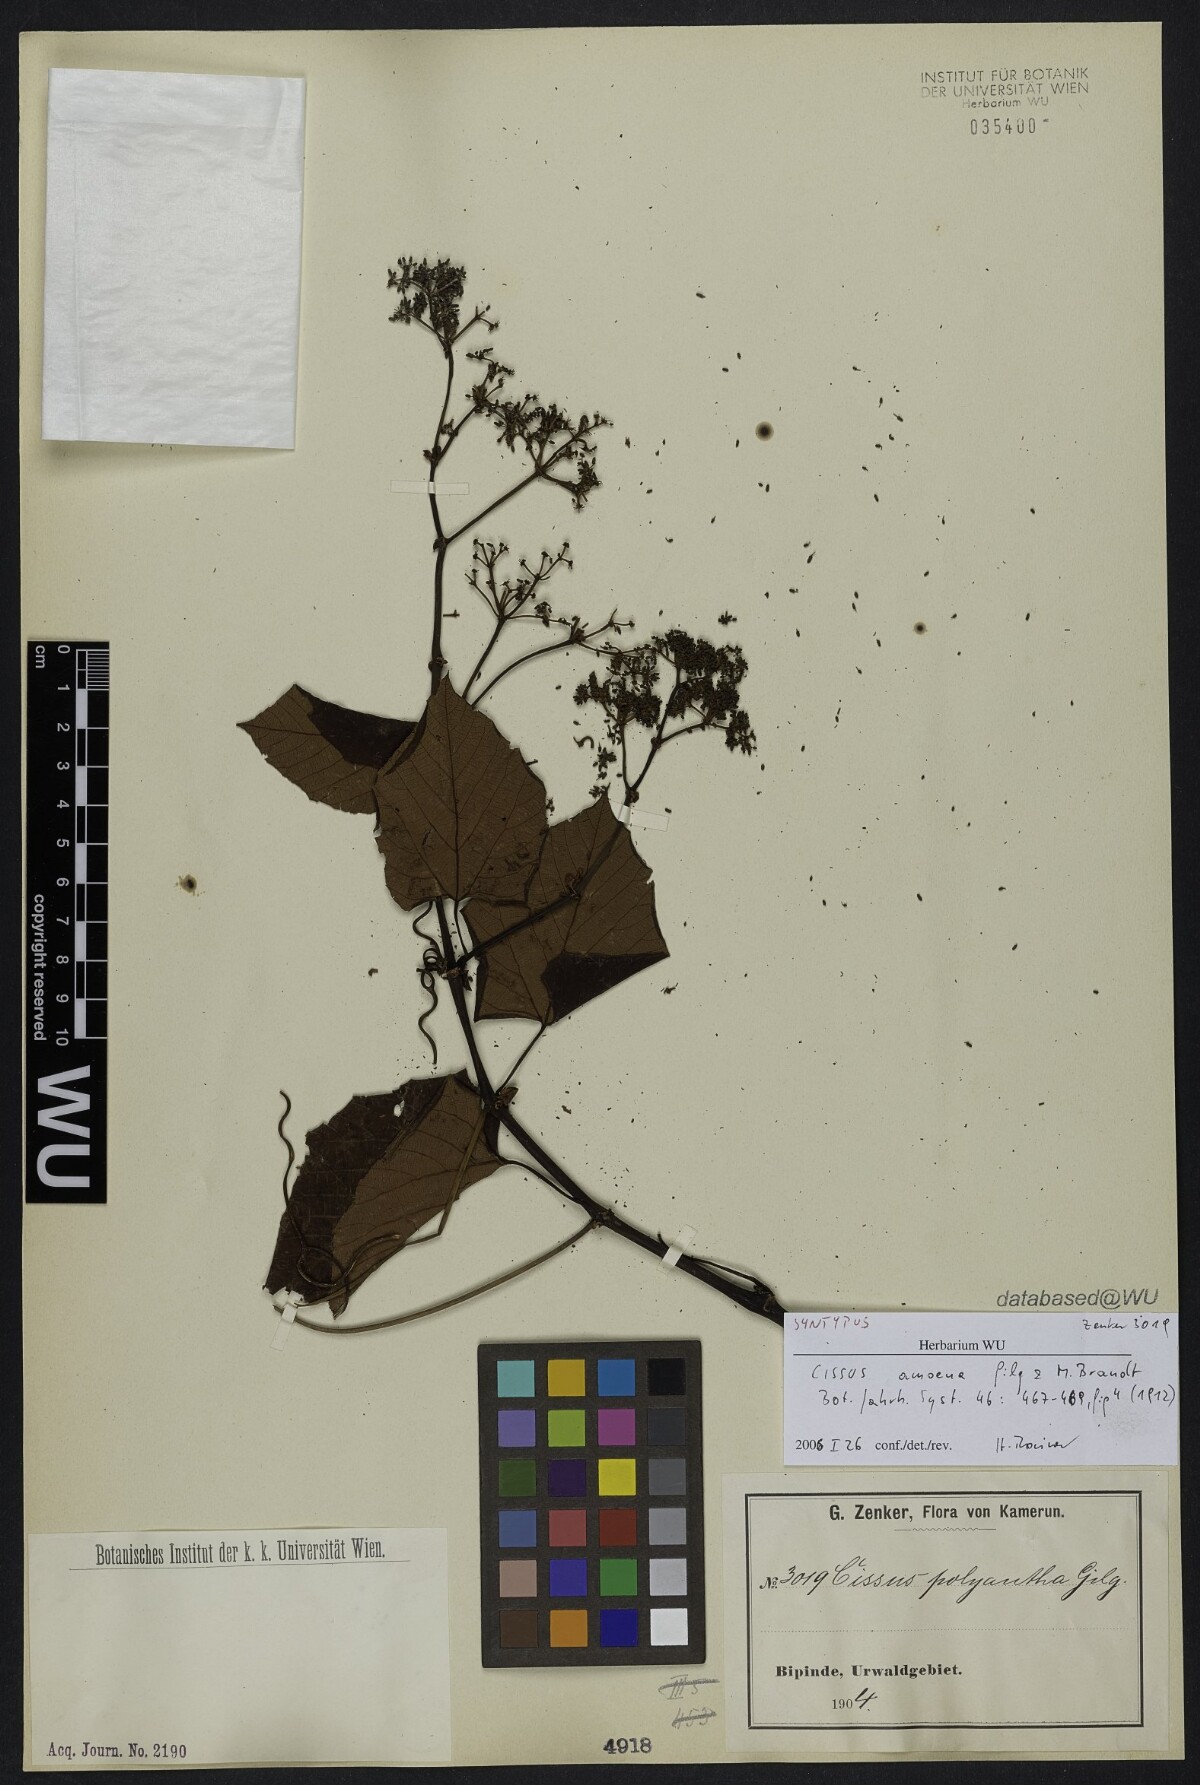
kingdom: Plantae
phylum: Tracheophyta
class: Magnoliopsida
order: Vitales
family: Vitaceae
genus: Cissus
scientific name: Cissus amoena
